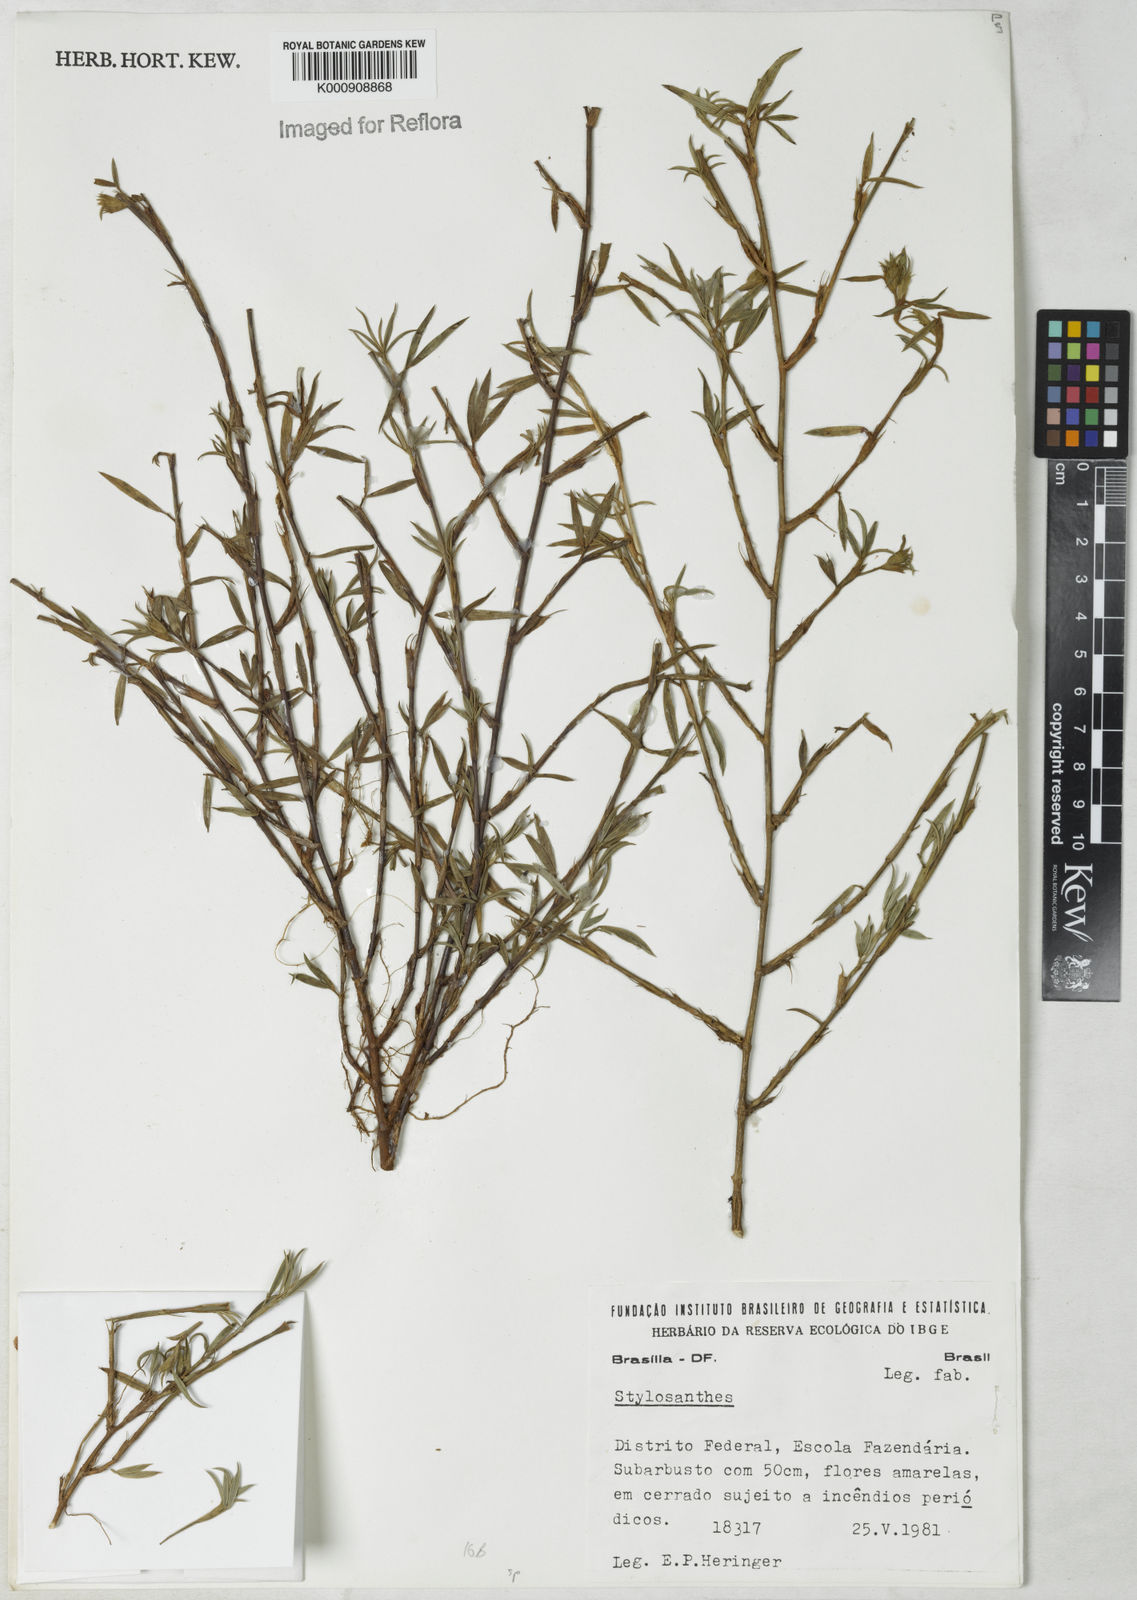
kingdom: Plantae
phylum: Tracheophyta
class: Magnoliopsida
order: Fabales
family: Fabaceae
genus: Stylosanthes
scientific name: Stylosanthes
